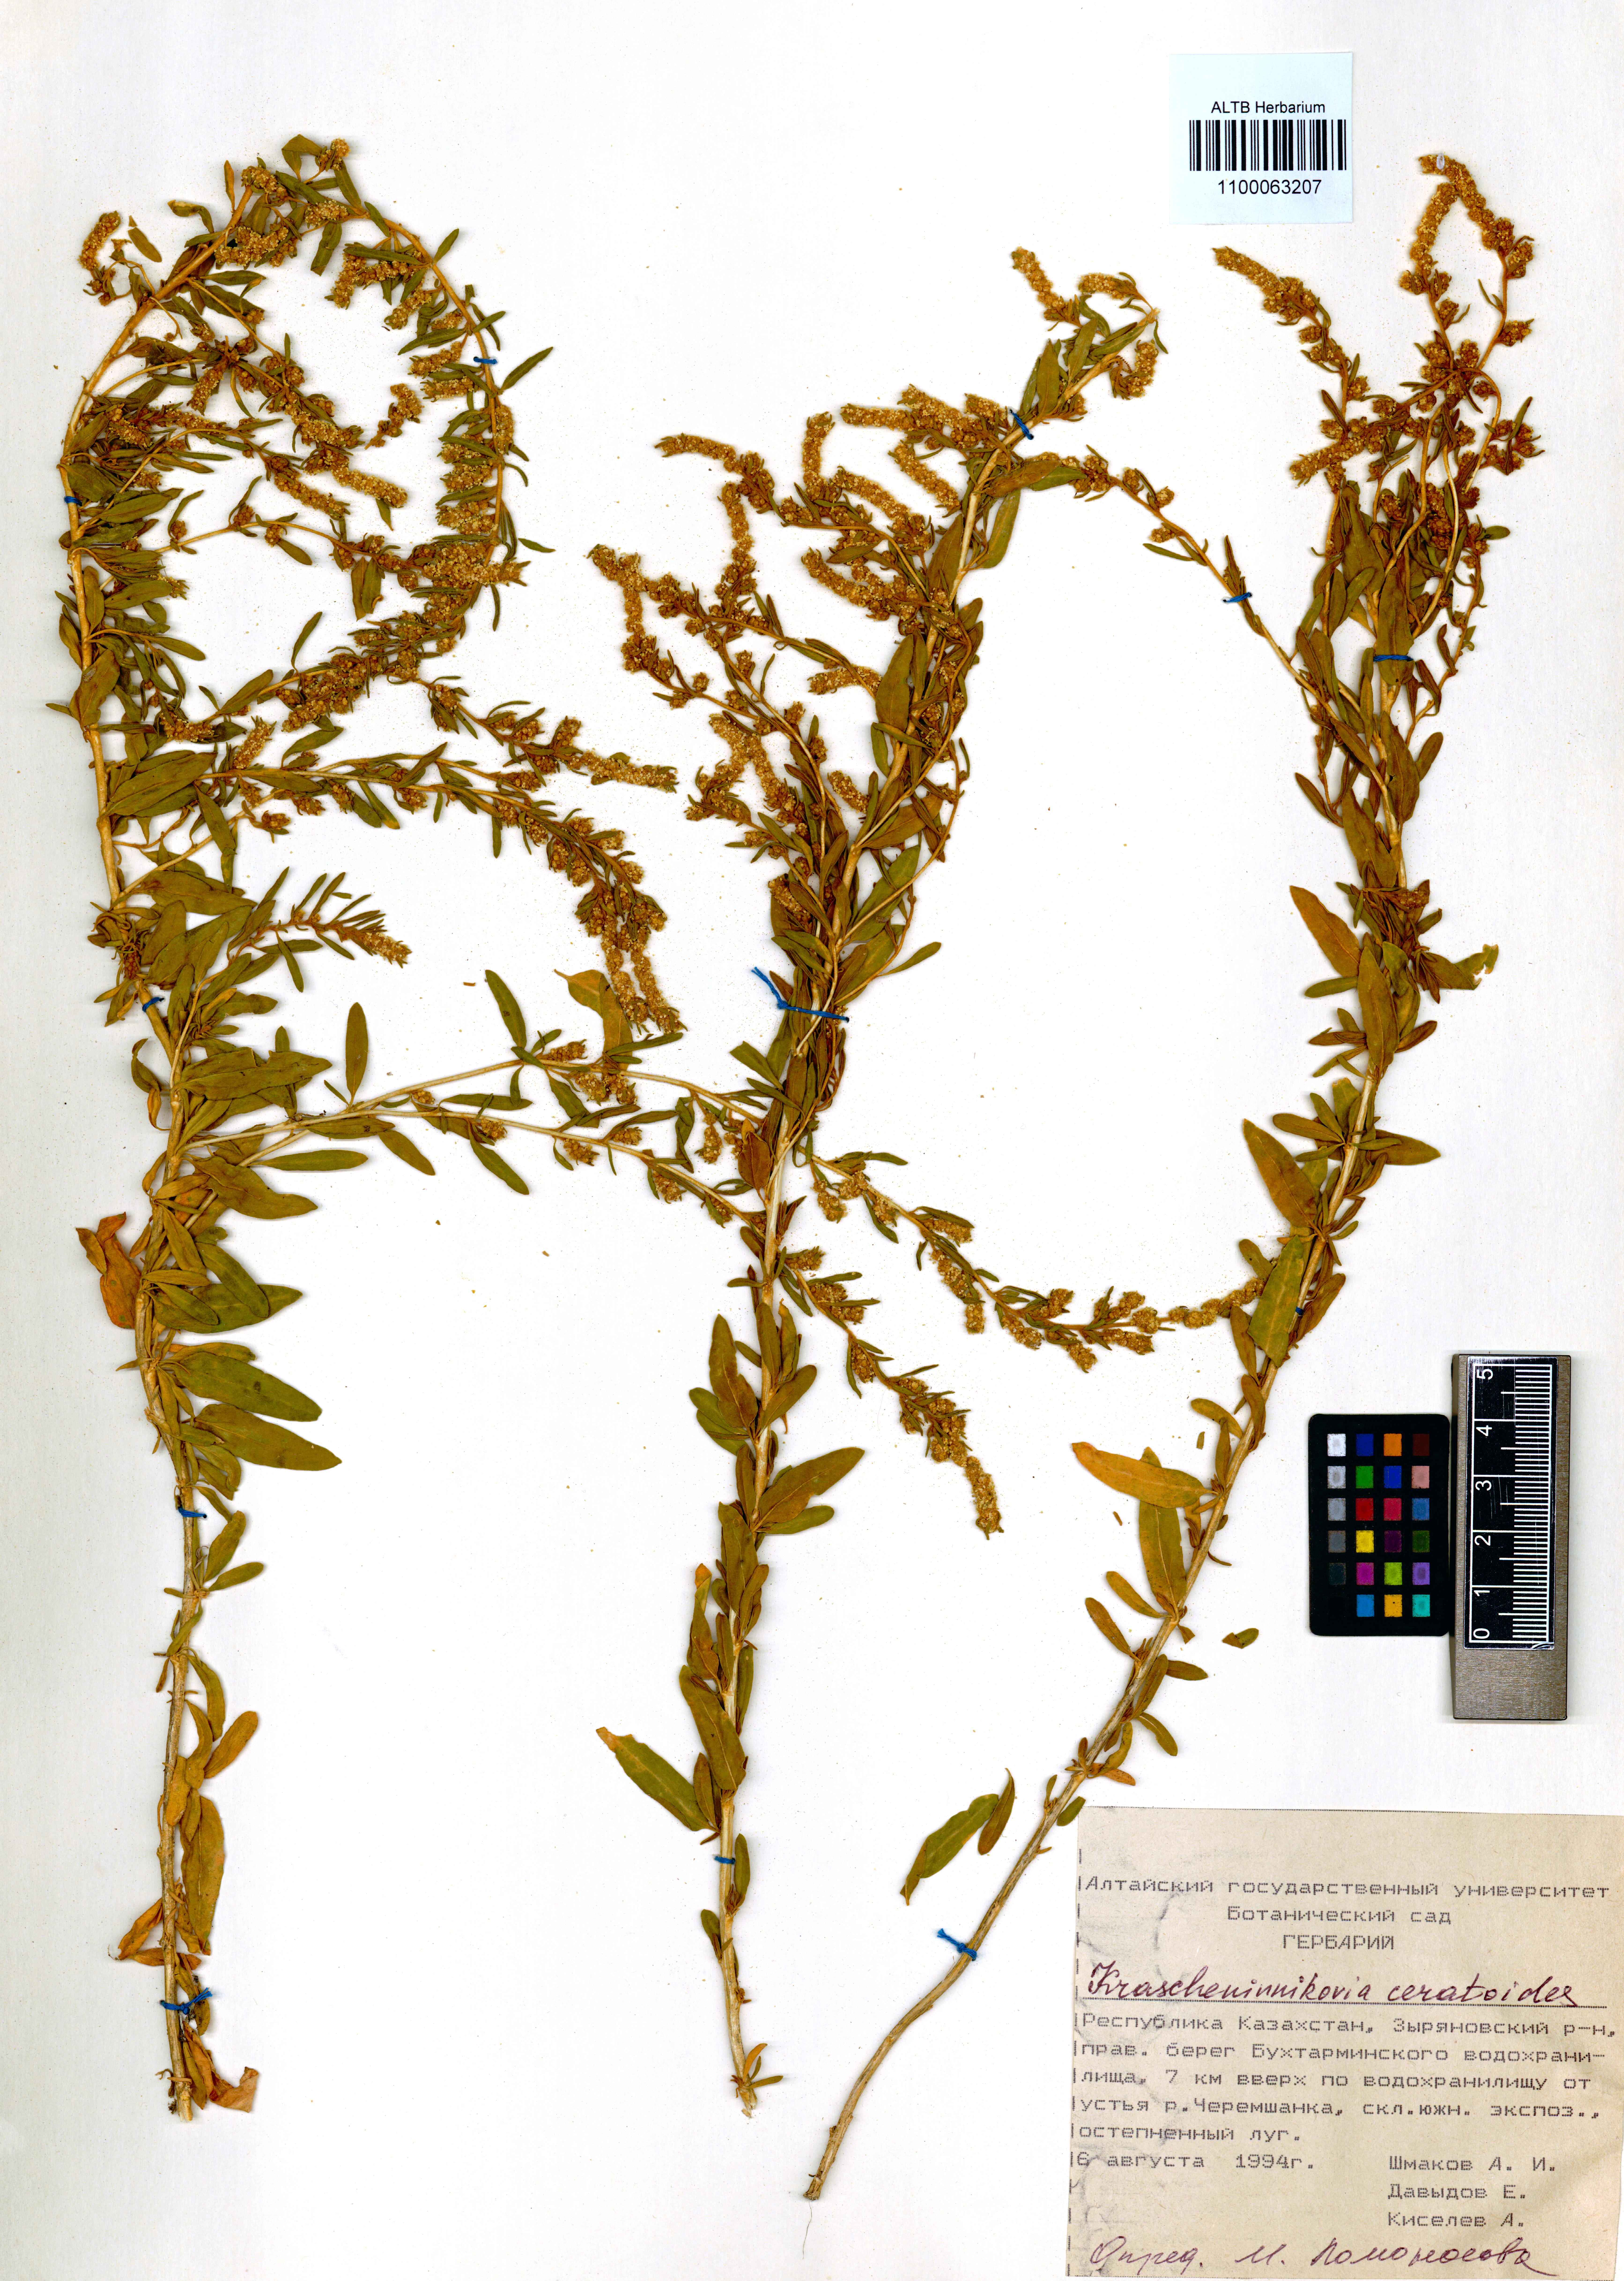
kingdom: Plantae
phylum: Tracheophyta
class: Magnoliopsida
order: Caryophyllales
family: Amaranthaceae
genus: Krascheninnikovia
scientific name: Krascheninnikovia ceratoides
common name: Pamirian winterfat
